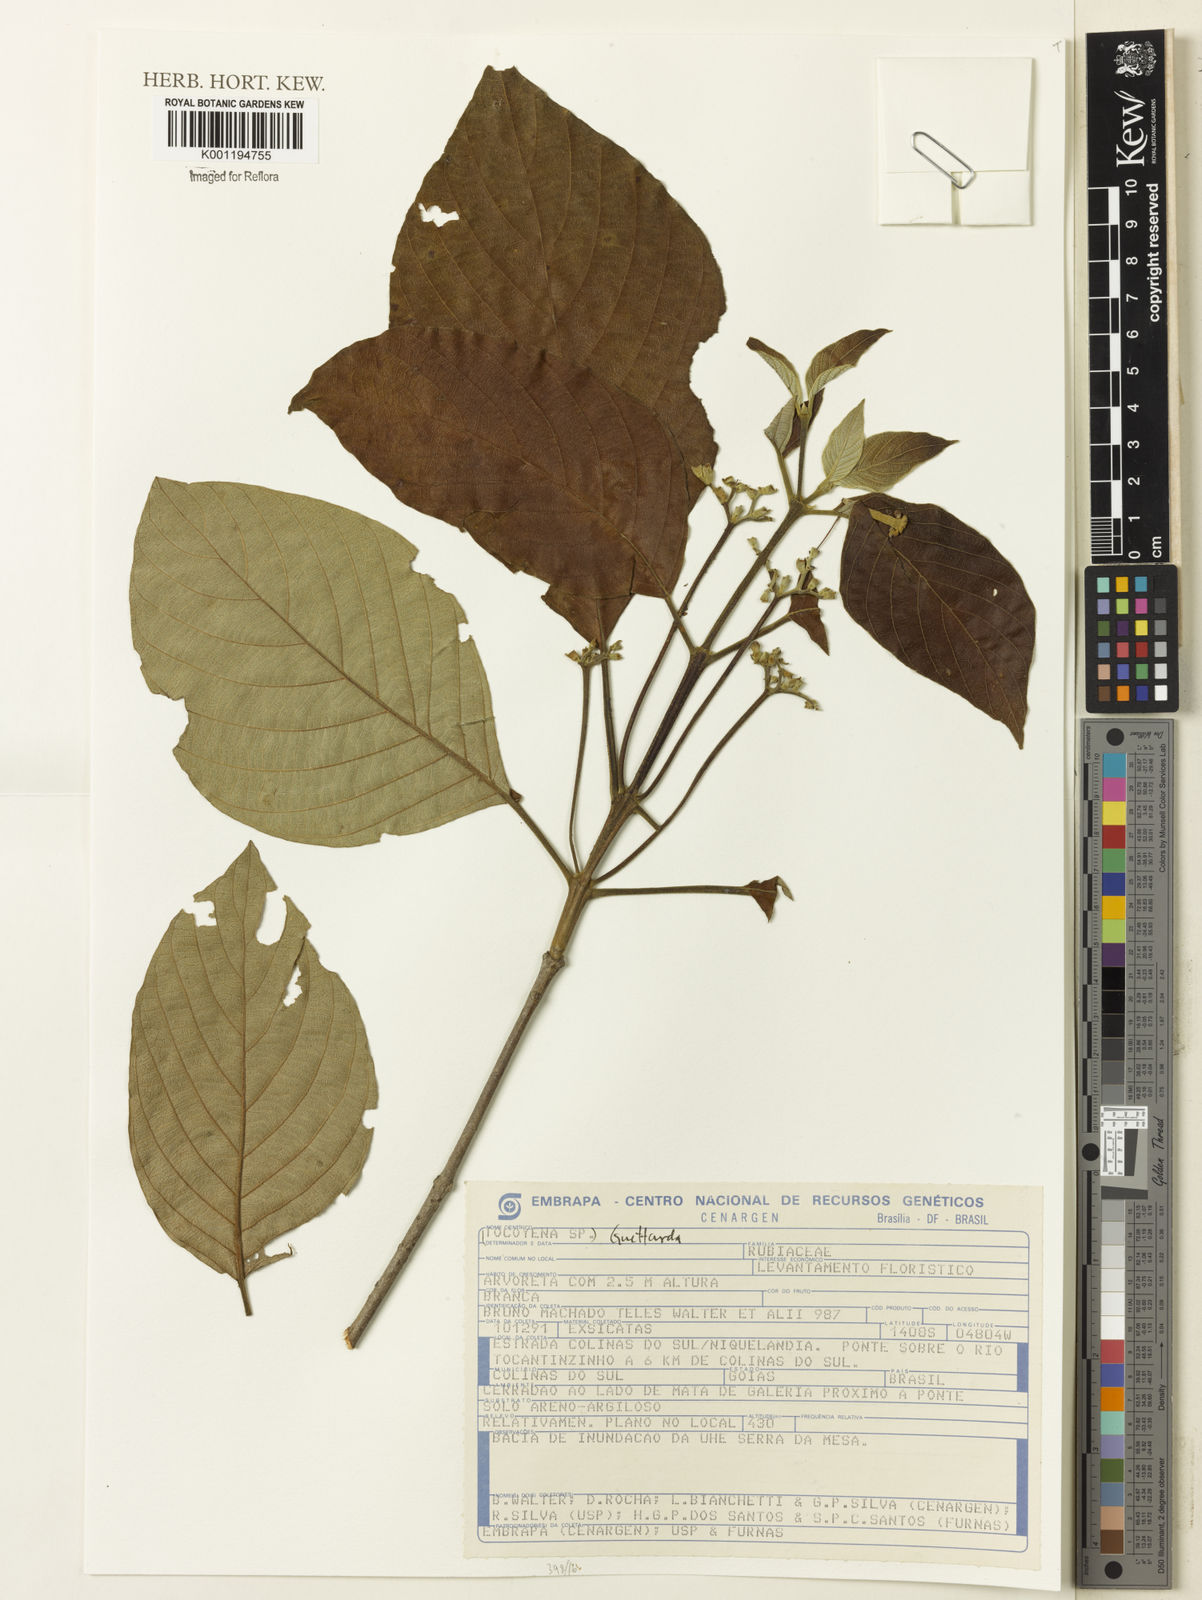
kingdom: Plantae
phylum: Tracheophyta
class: Magnoliopsida
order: Gentianales
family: Rubiaceae
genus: Guettarda
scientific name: Guettarda
